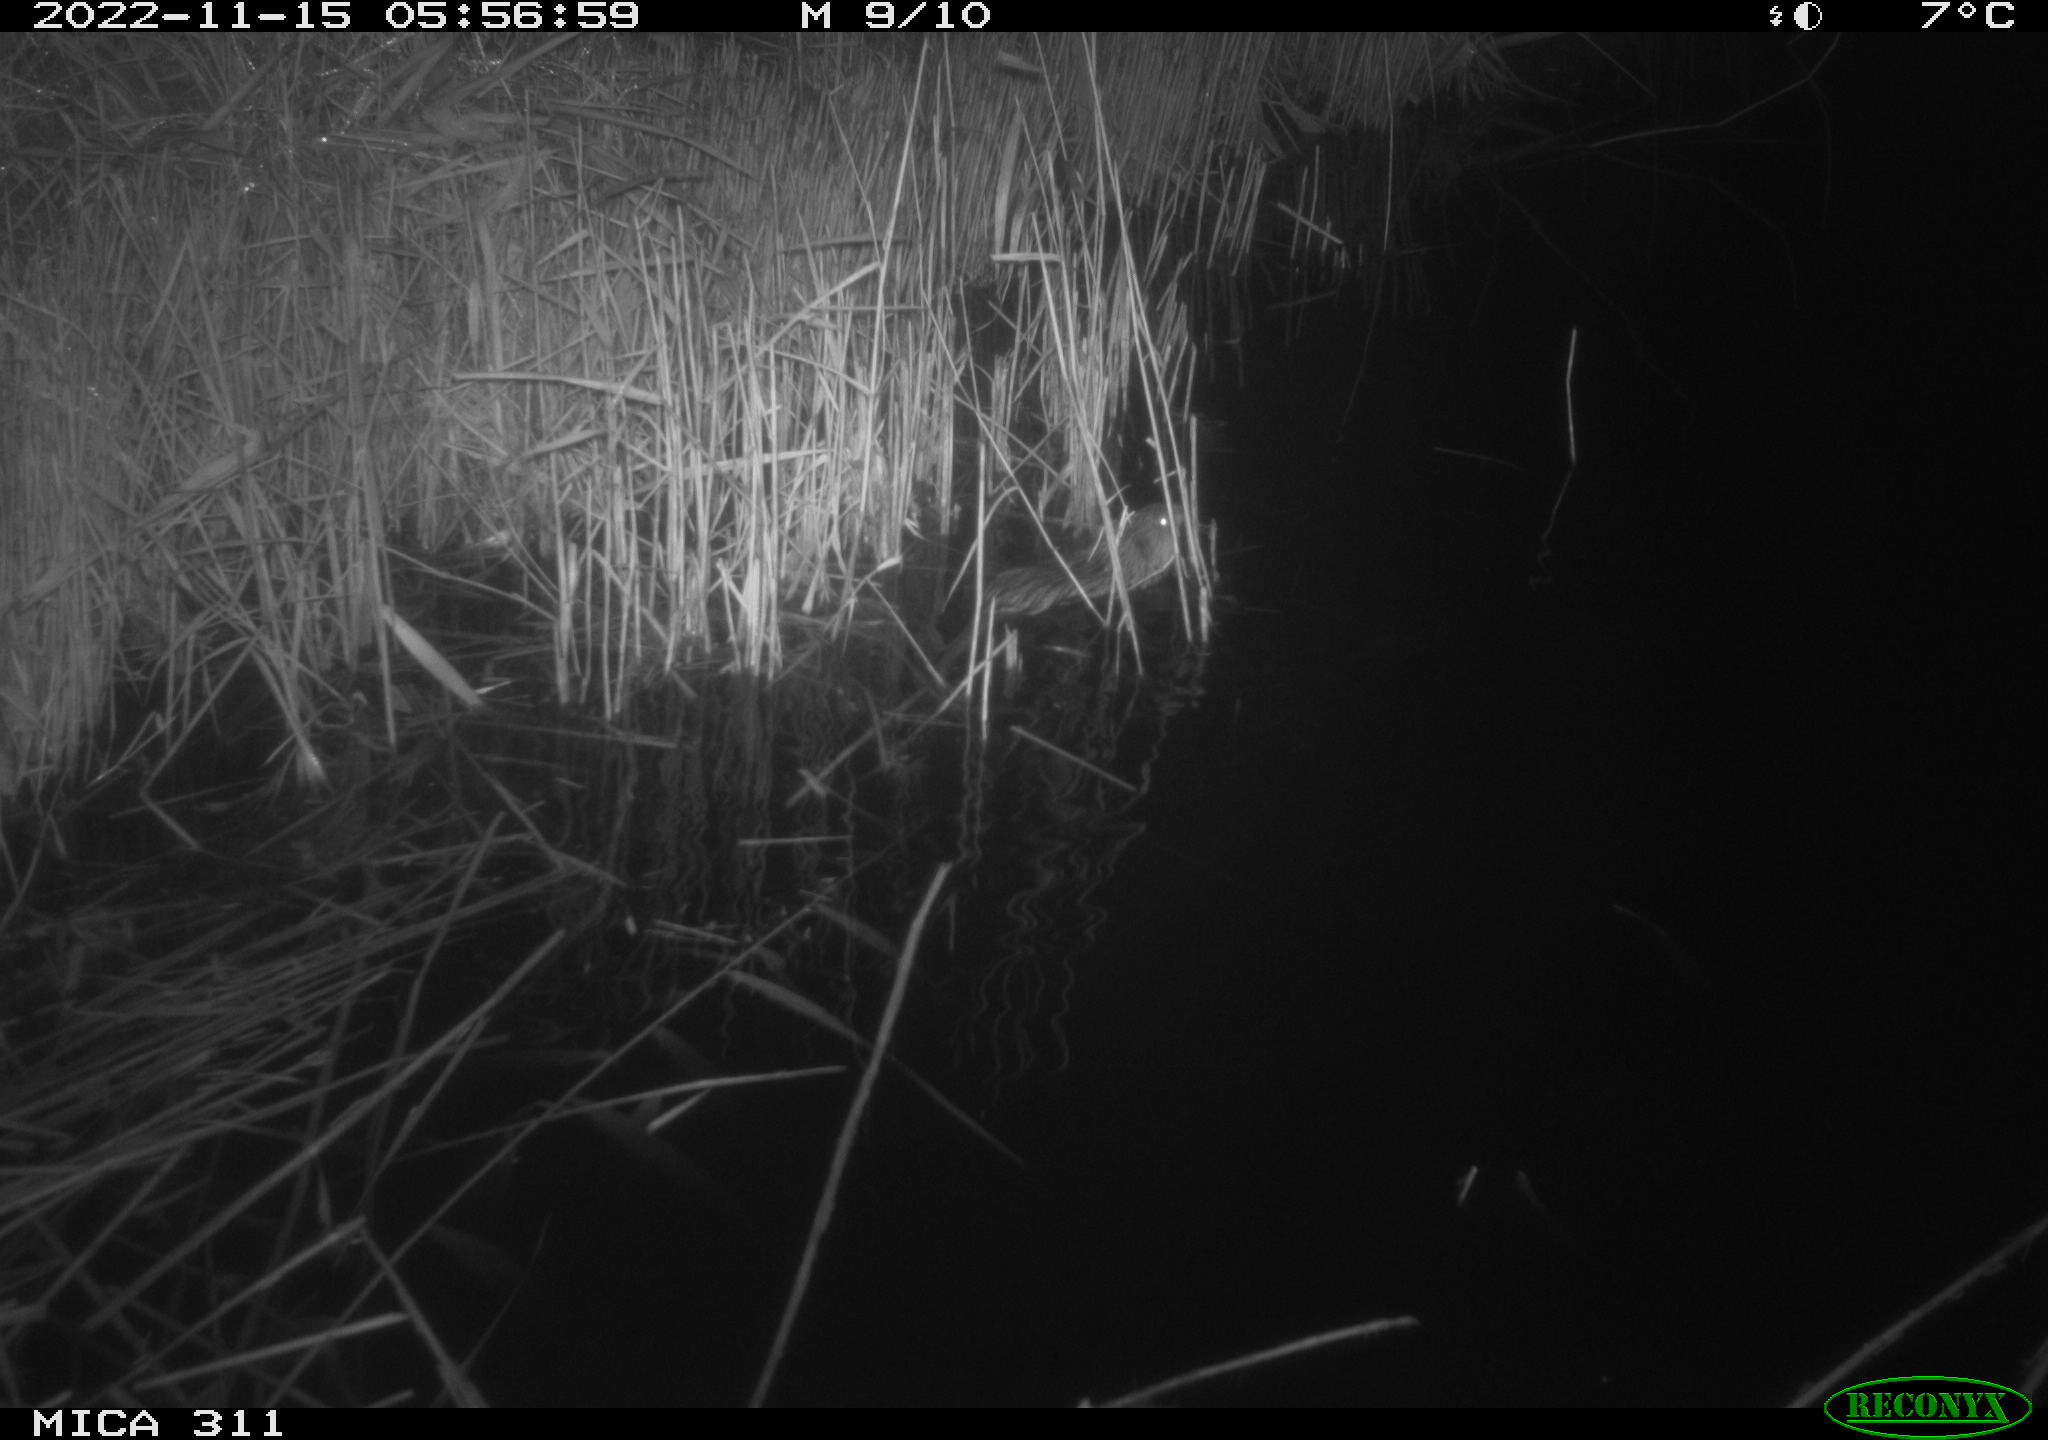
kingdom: Animalia
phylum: Chordata
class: Mammalia
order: Rodentia
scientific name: Rodentia
